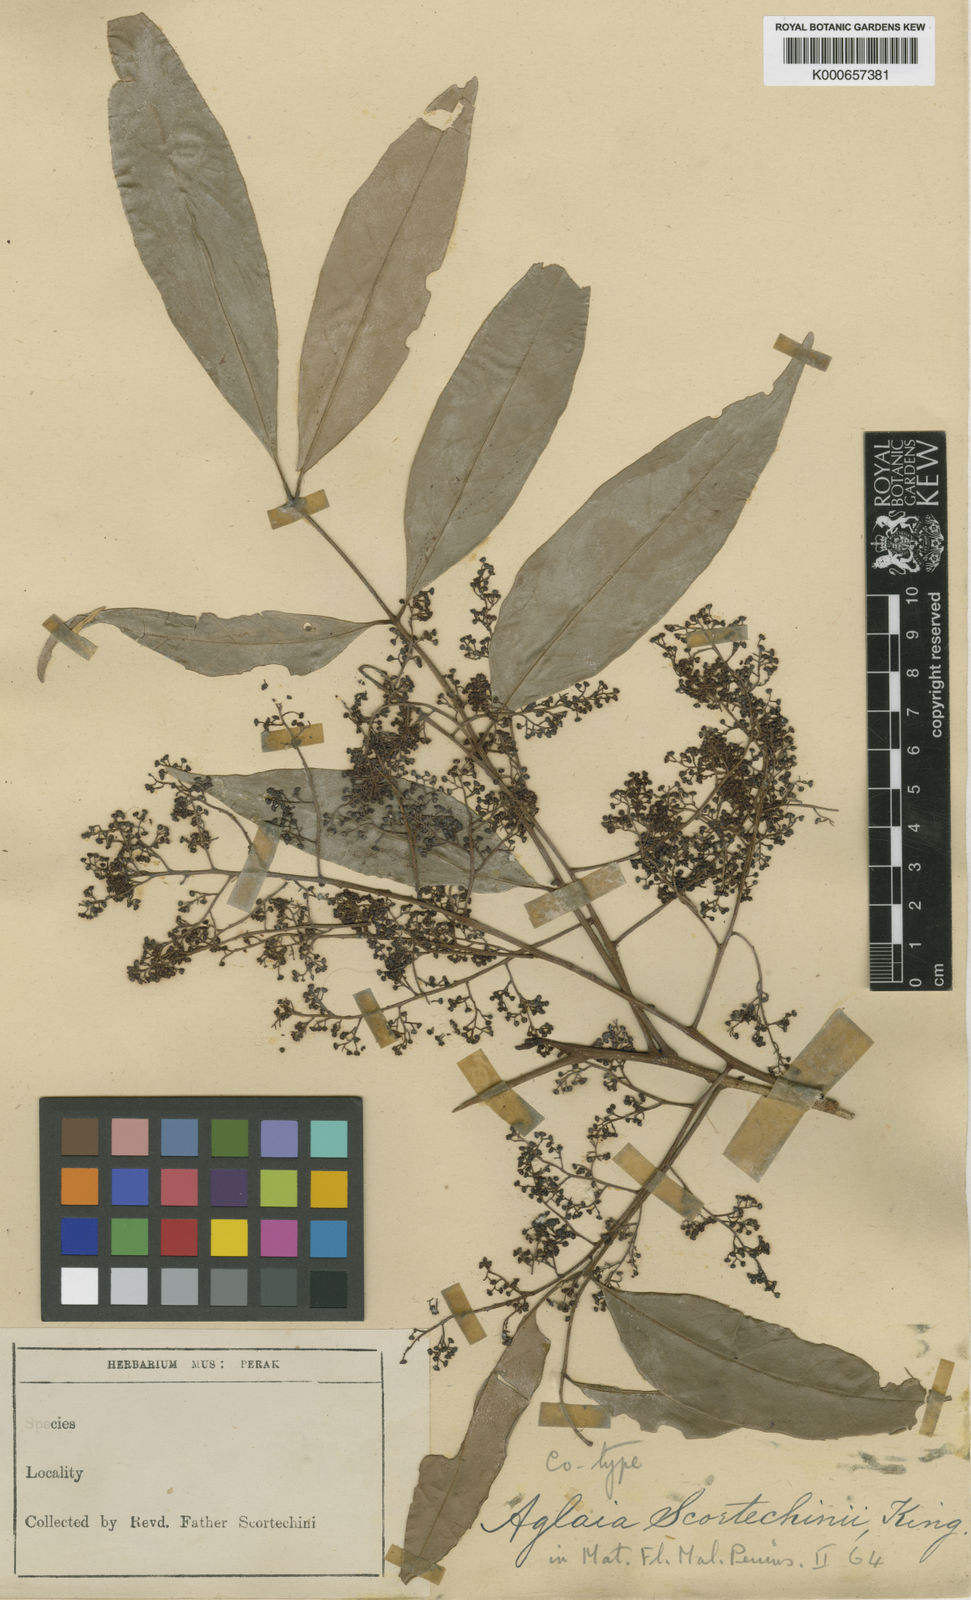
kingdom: Plantae
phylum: Tracheophyta
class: Magnoliopsida
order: Sapindales
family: Meliaceae
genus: Aglaia
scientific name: Aglaia scortechinii
